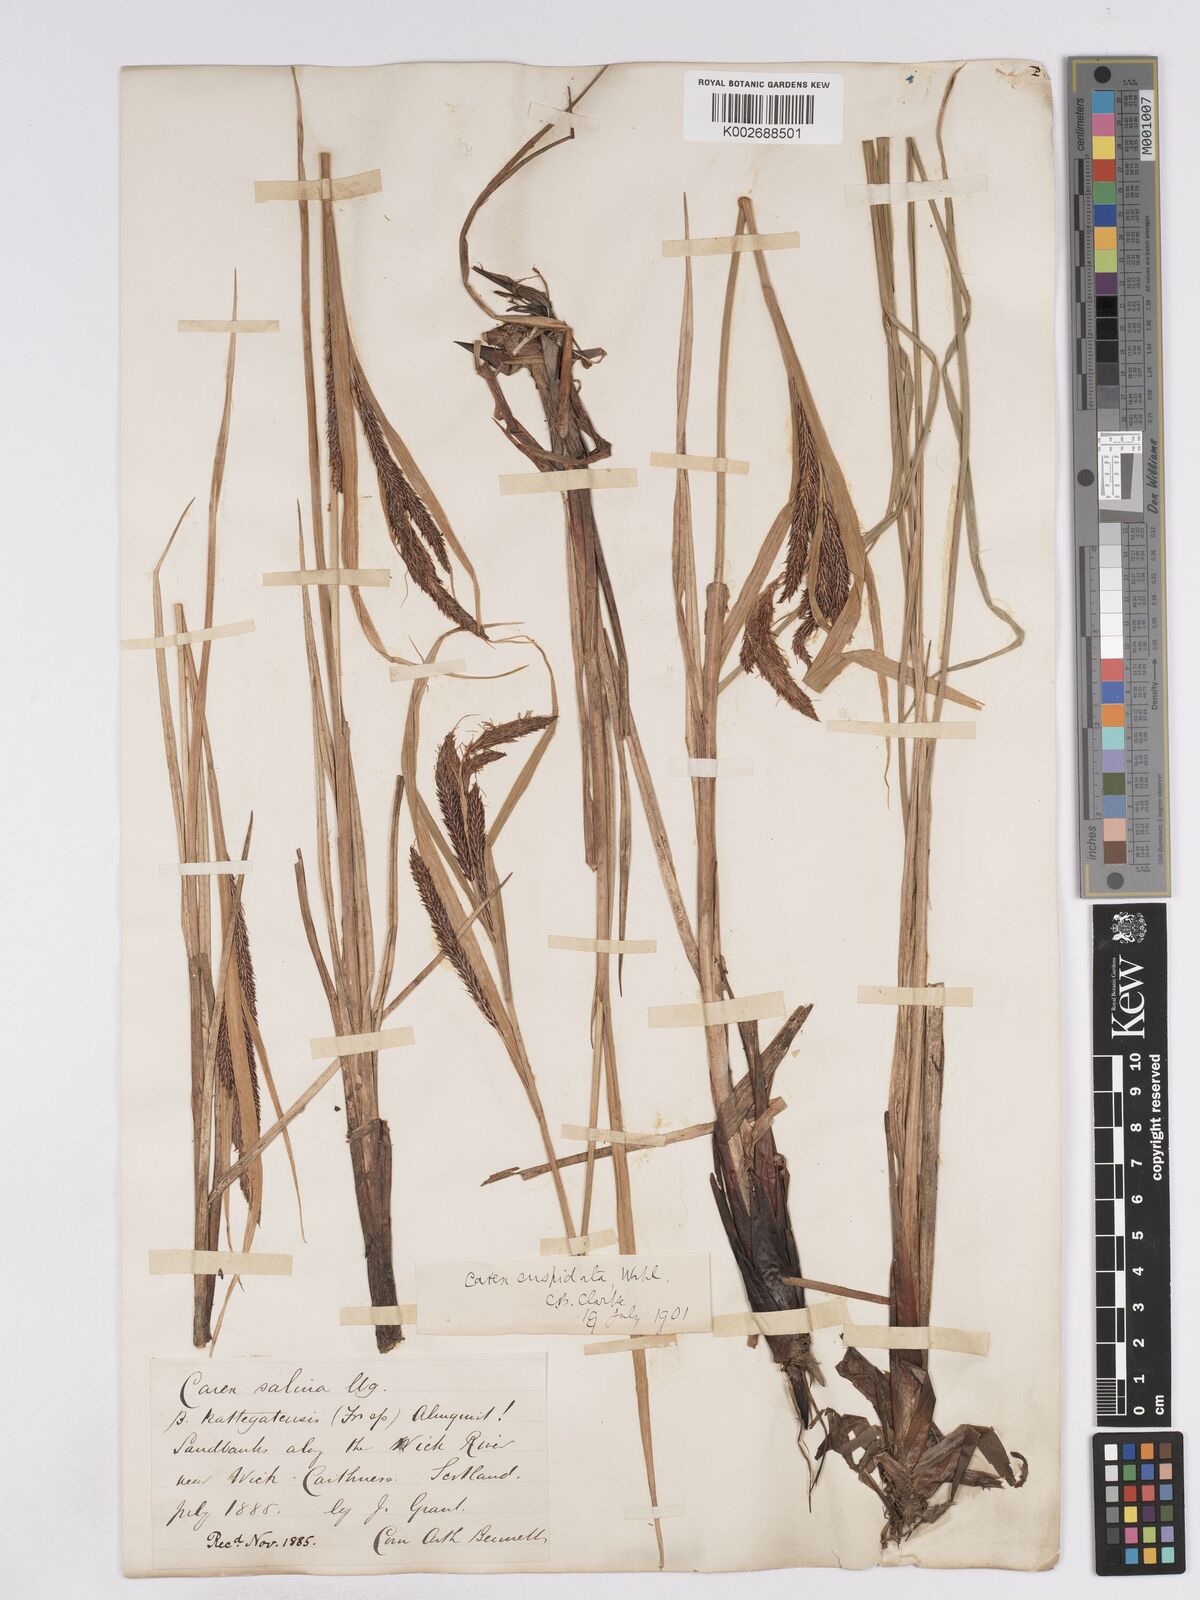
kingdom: Plantae
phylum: Tracheophyta
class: Liliopsida
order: Poales
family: Cyperaceae
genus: Carex
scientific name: Carex recta
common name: Estuarine sedge
